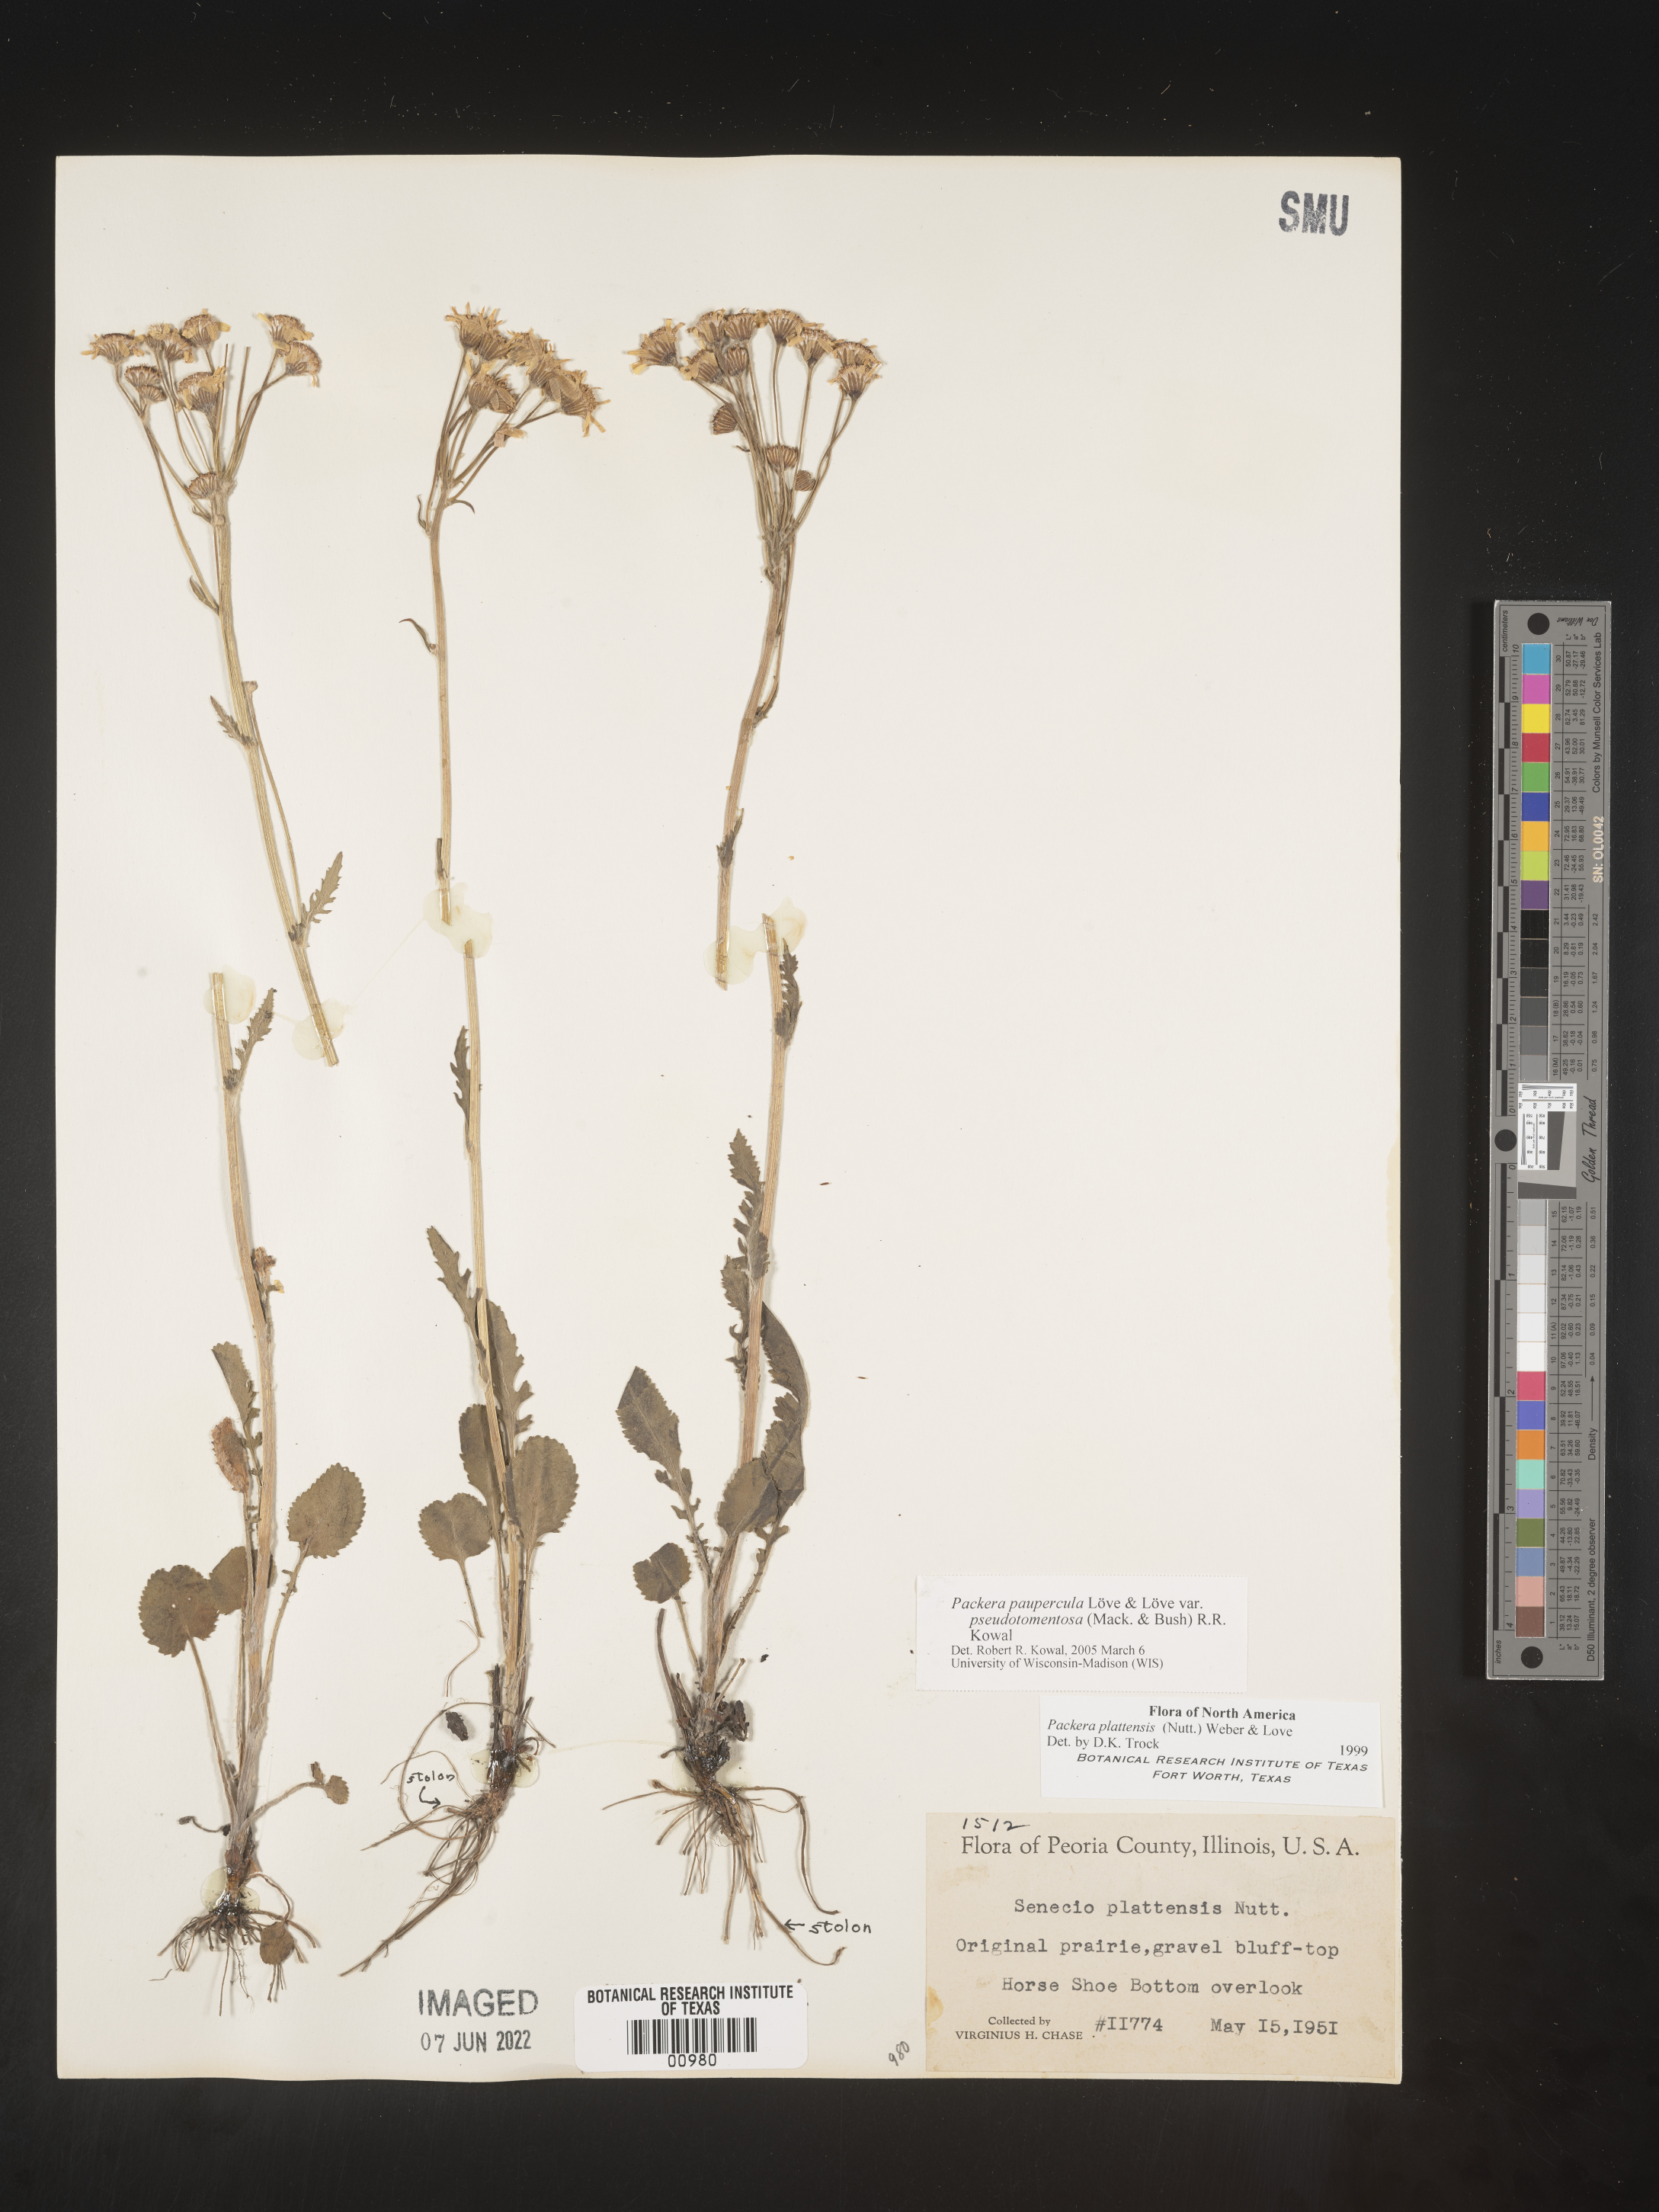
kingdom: Plantae
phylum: Tracheophyta
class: Magnoliopsida
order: Asterales
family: Asteraceae
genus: Packera
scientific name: Packera paupercula
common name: Balsam groundsel
